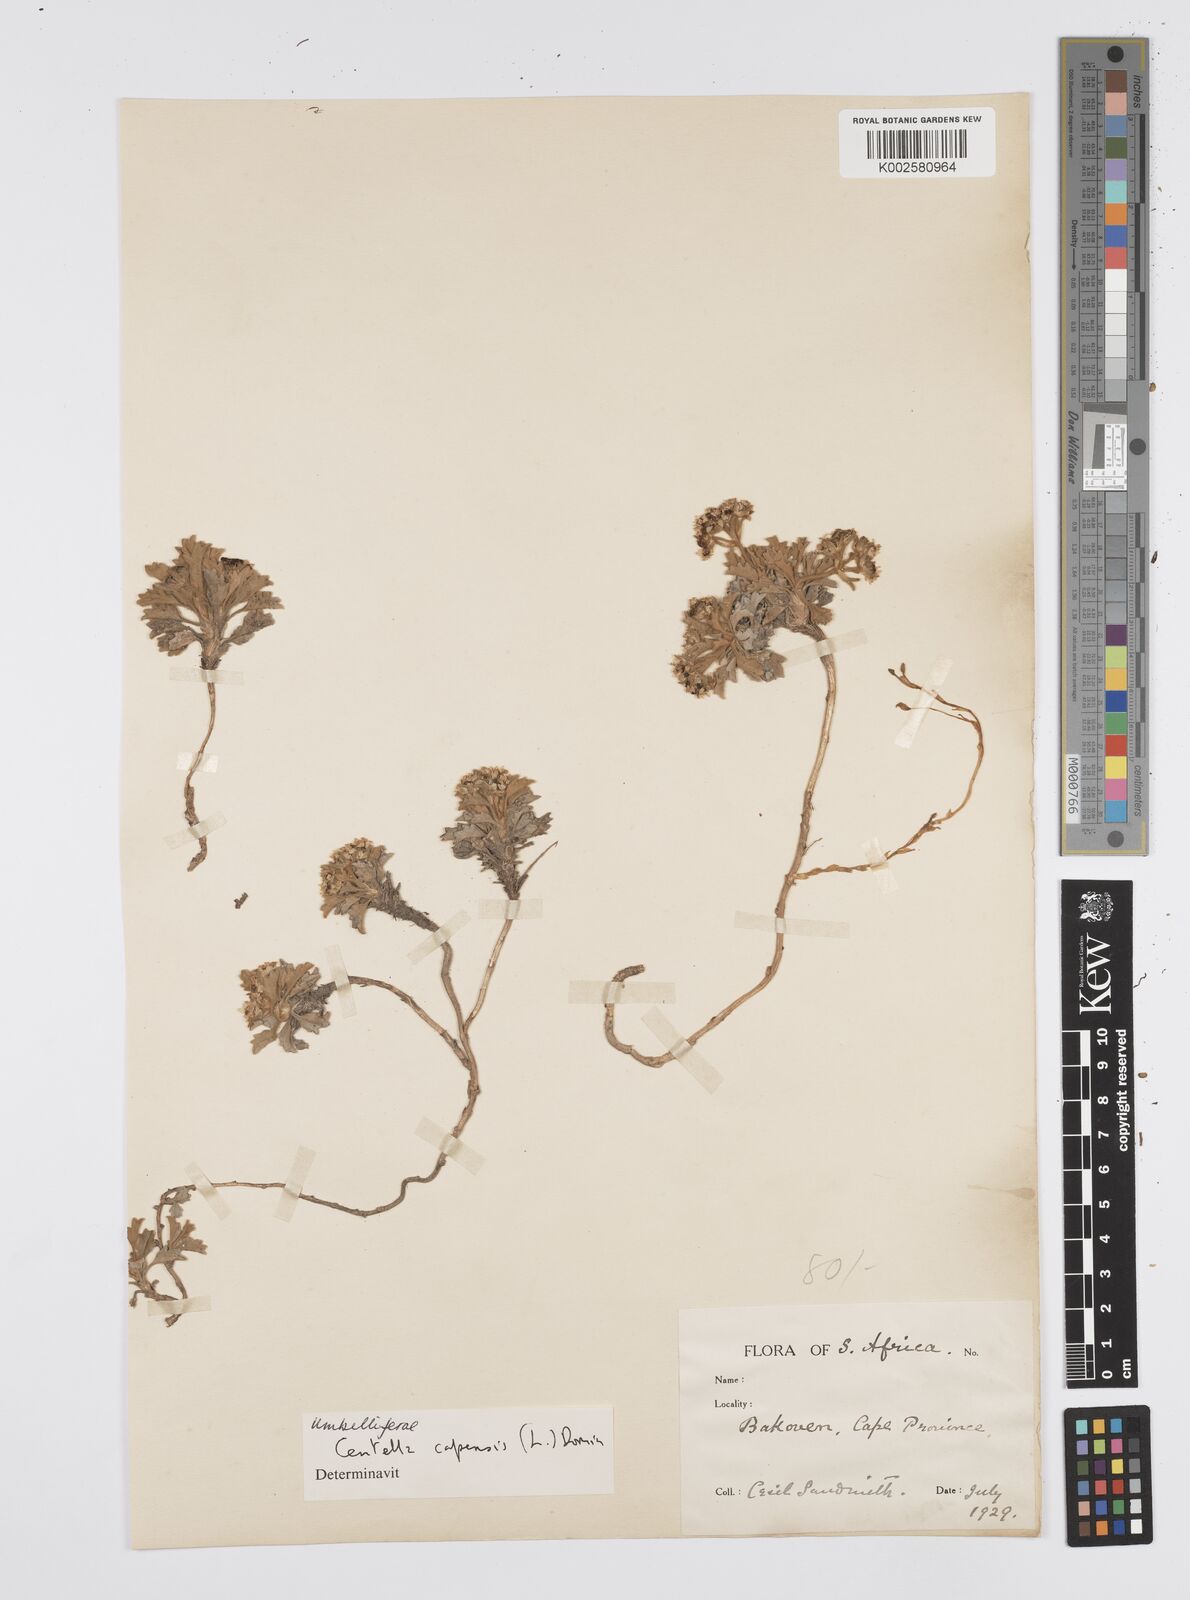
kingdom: Plantae
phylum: Tracheophyta
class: Magnoliopsida
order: Apiales
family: Apiaceae
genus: Centella
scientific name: Centella capensis
